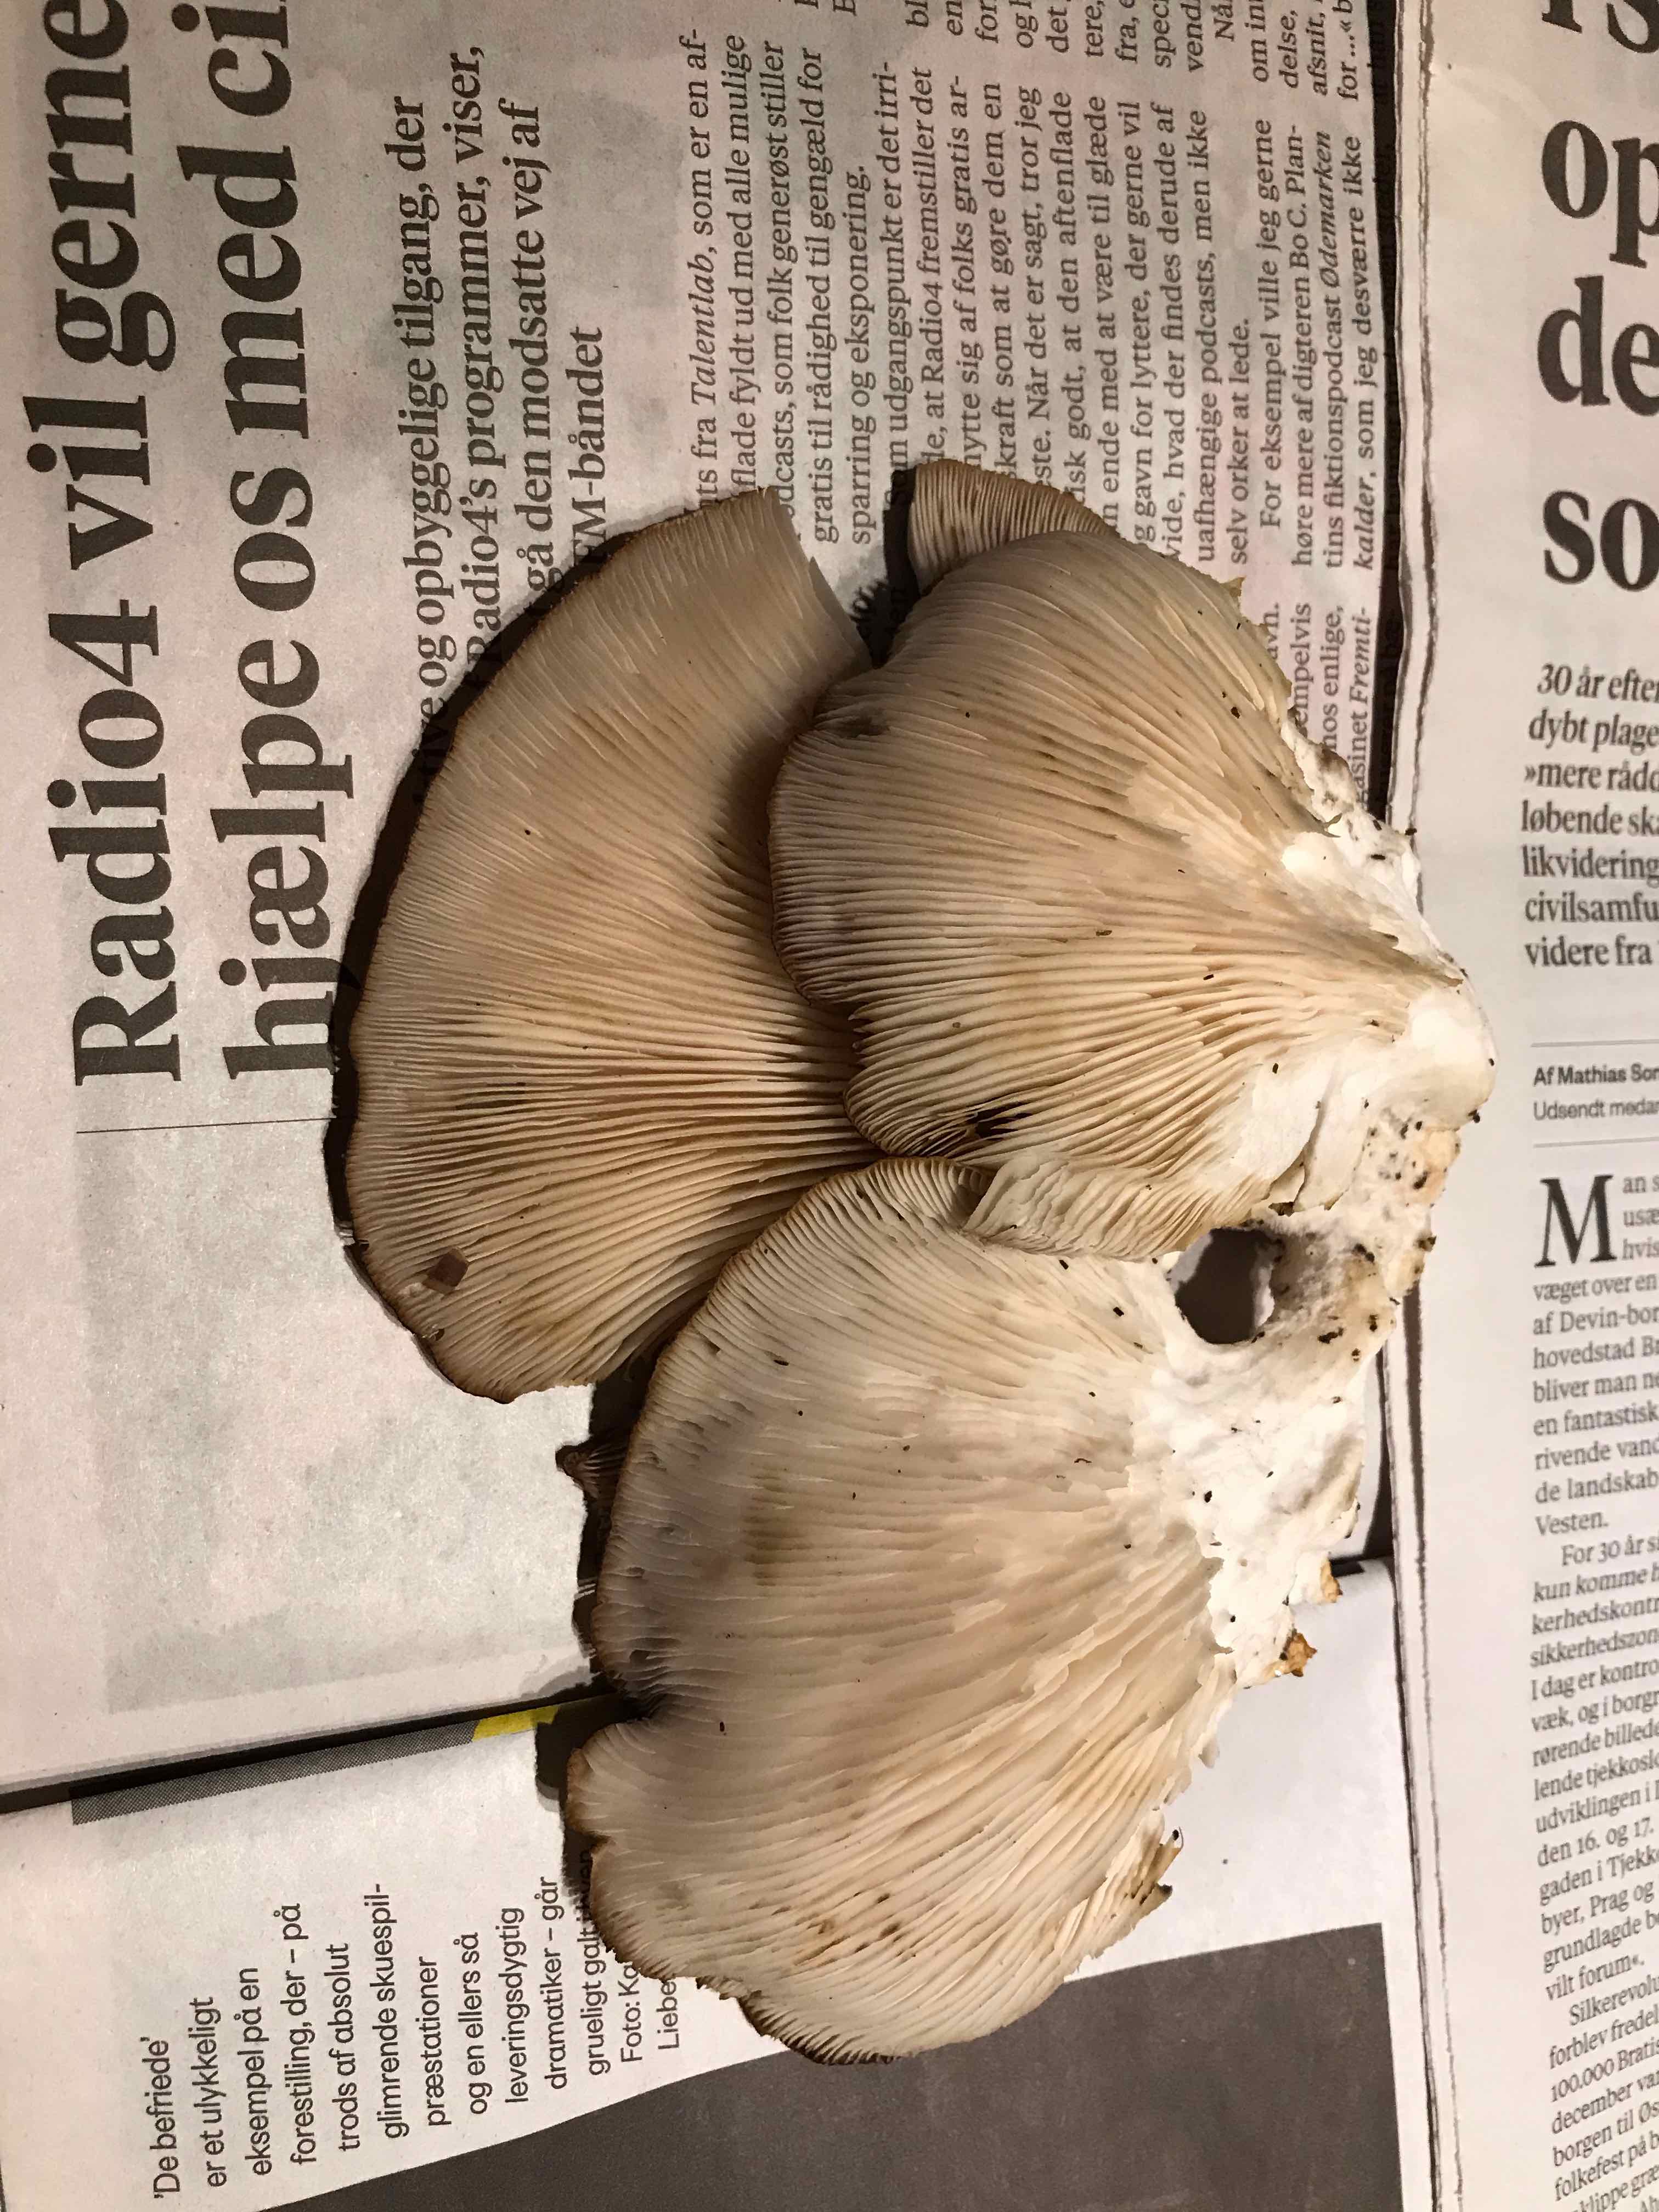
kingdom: Fungi
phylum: Basidiomycota
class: Agaricomycetes
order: Agaricales
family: Pleurotaceae
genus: Pleurotus
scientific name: Pleurotus ostreatus
